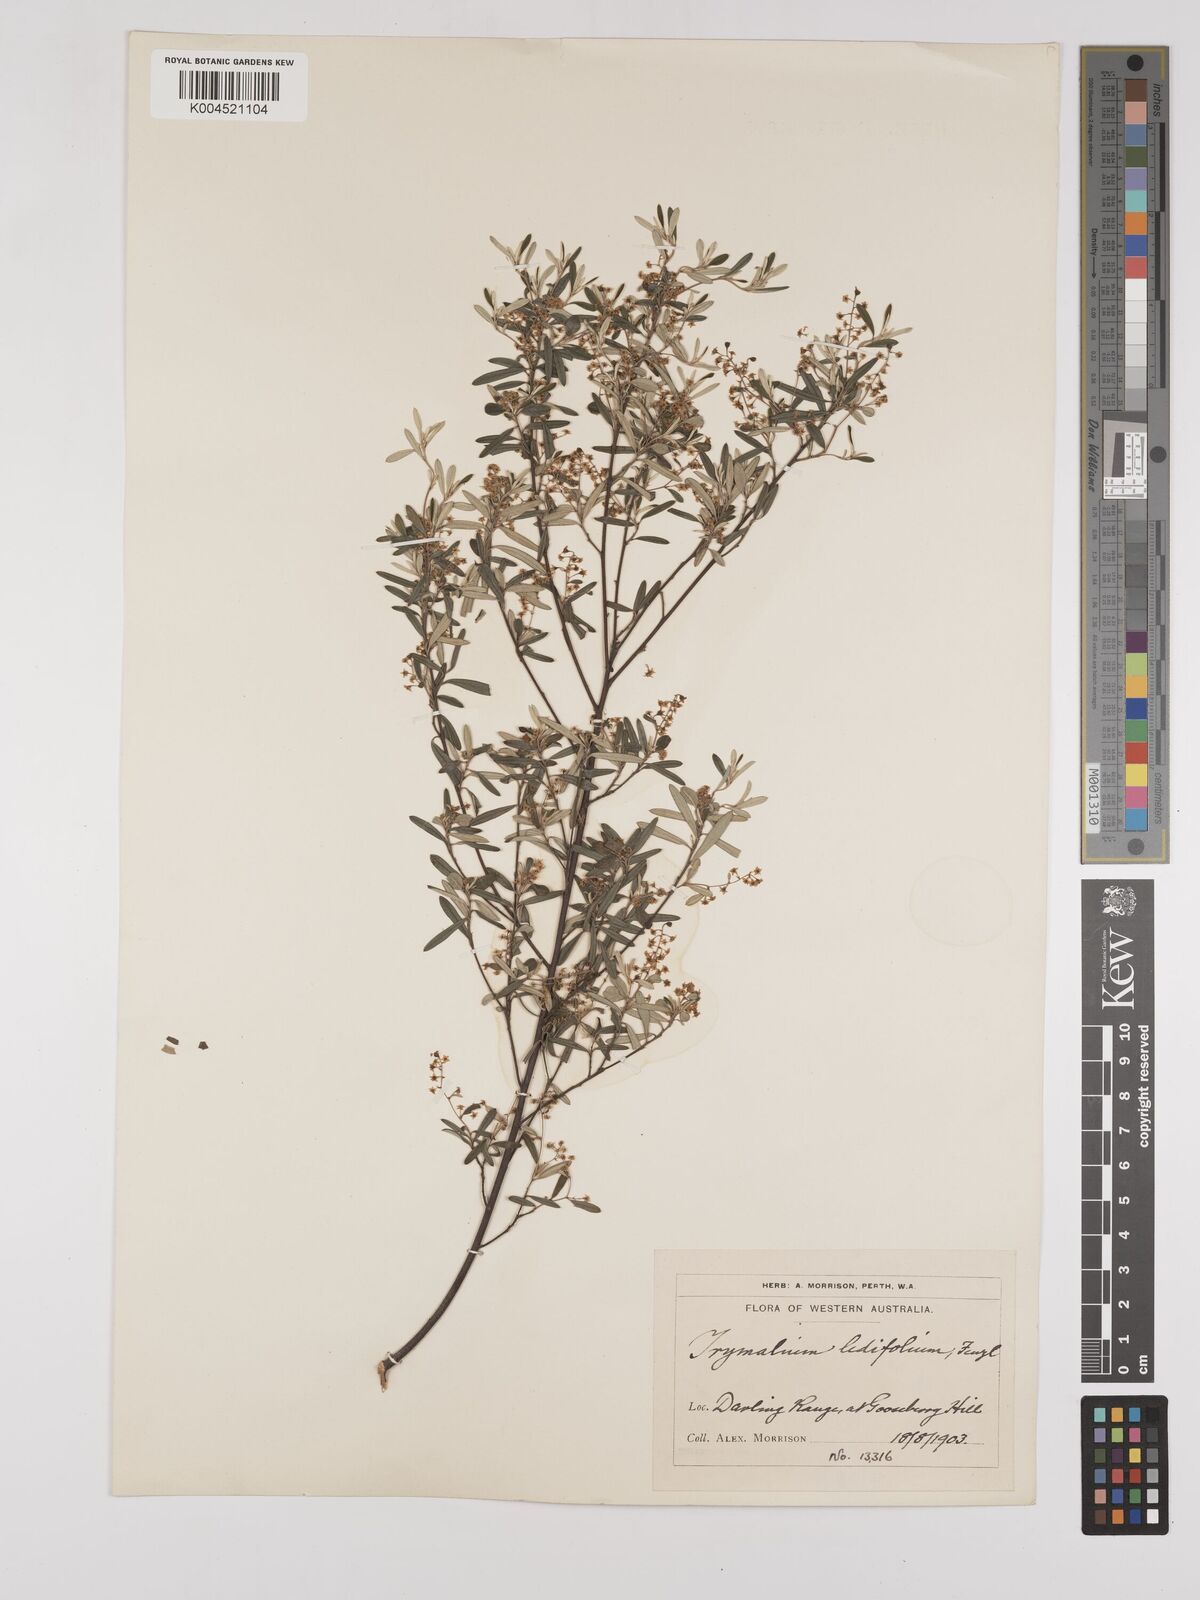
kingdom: Plantae
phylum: Tracheophyta
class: Magnoliopsida
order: Rosales
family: Rhamnaceae
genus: Trymalium
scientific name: Trymalium ledifolium
